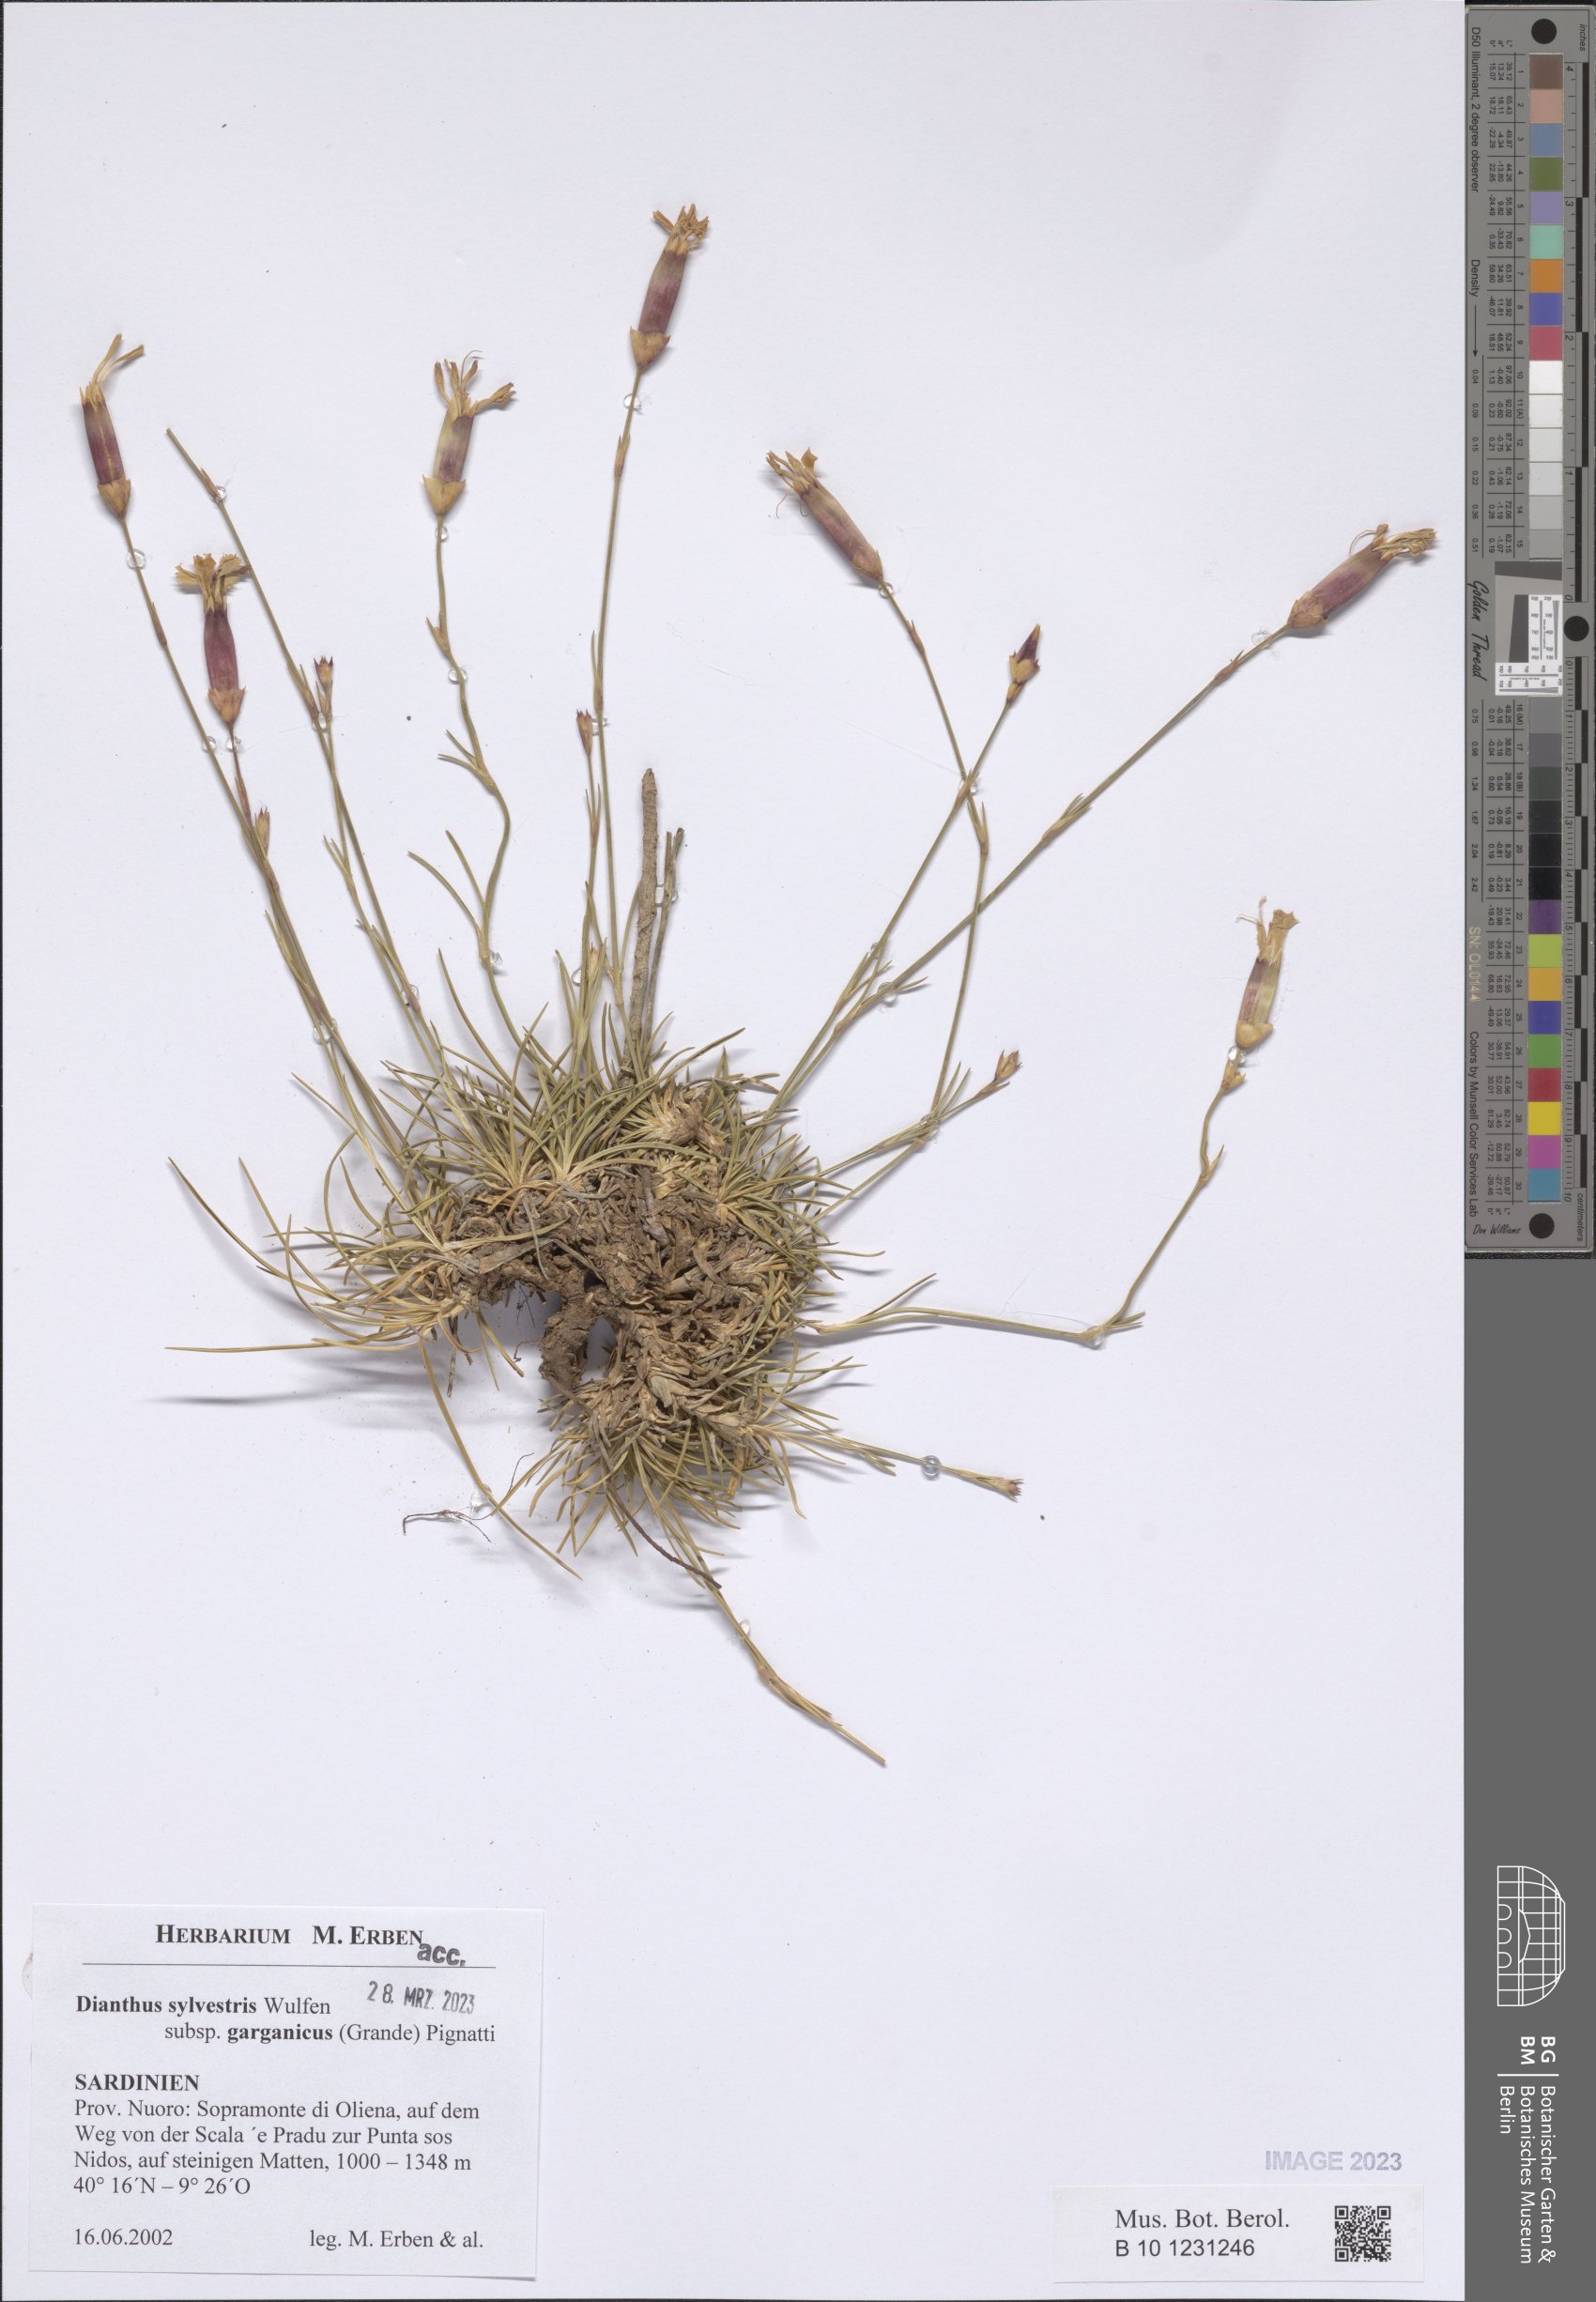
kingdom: Plantae
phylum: Tracheophyta
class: Magnoliopsida
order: Caryophyllales
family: Caryophyllaceae
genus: Dianthus
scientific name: Dianthus tarentinus
